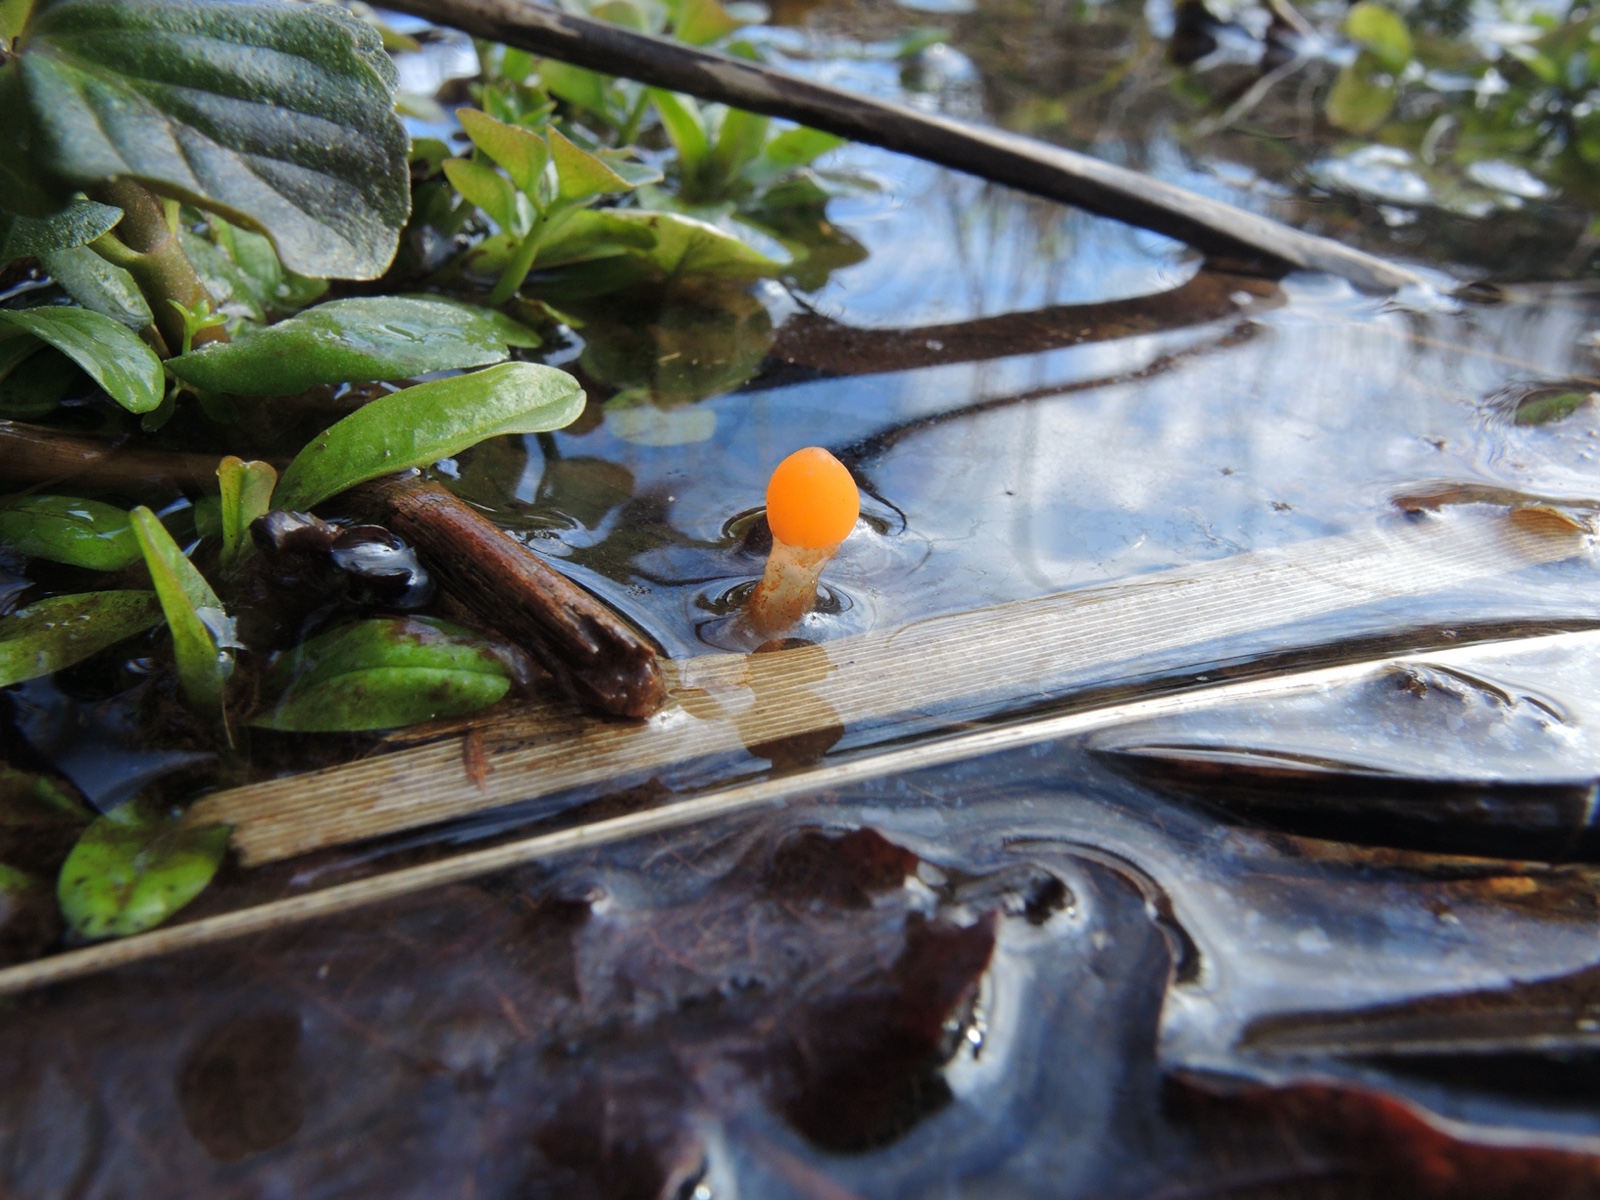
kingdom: Fungi
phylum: Ascomycota
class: Leotiomycetes
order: Helotiales
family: Cenangiaceae
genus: Mitrula
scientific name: Mitrula paludosa
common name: gul nøkketunge
